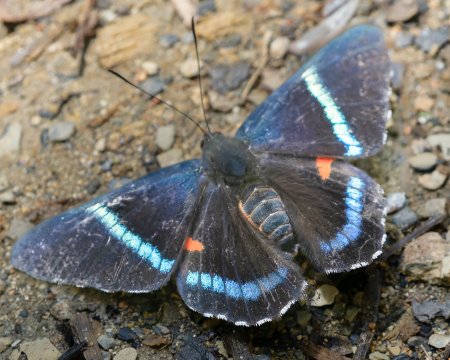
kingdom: Animalia
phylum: Arthropoda
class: Insecta
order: Lepidoptera
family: Lycaenidae
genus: Necyria
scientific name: Necyria bellona
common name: bellona metalmark
